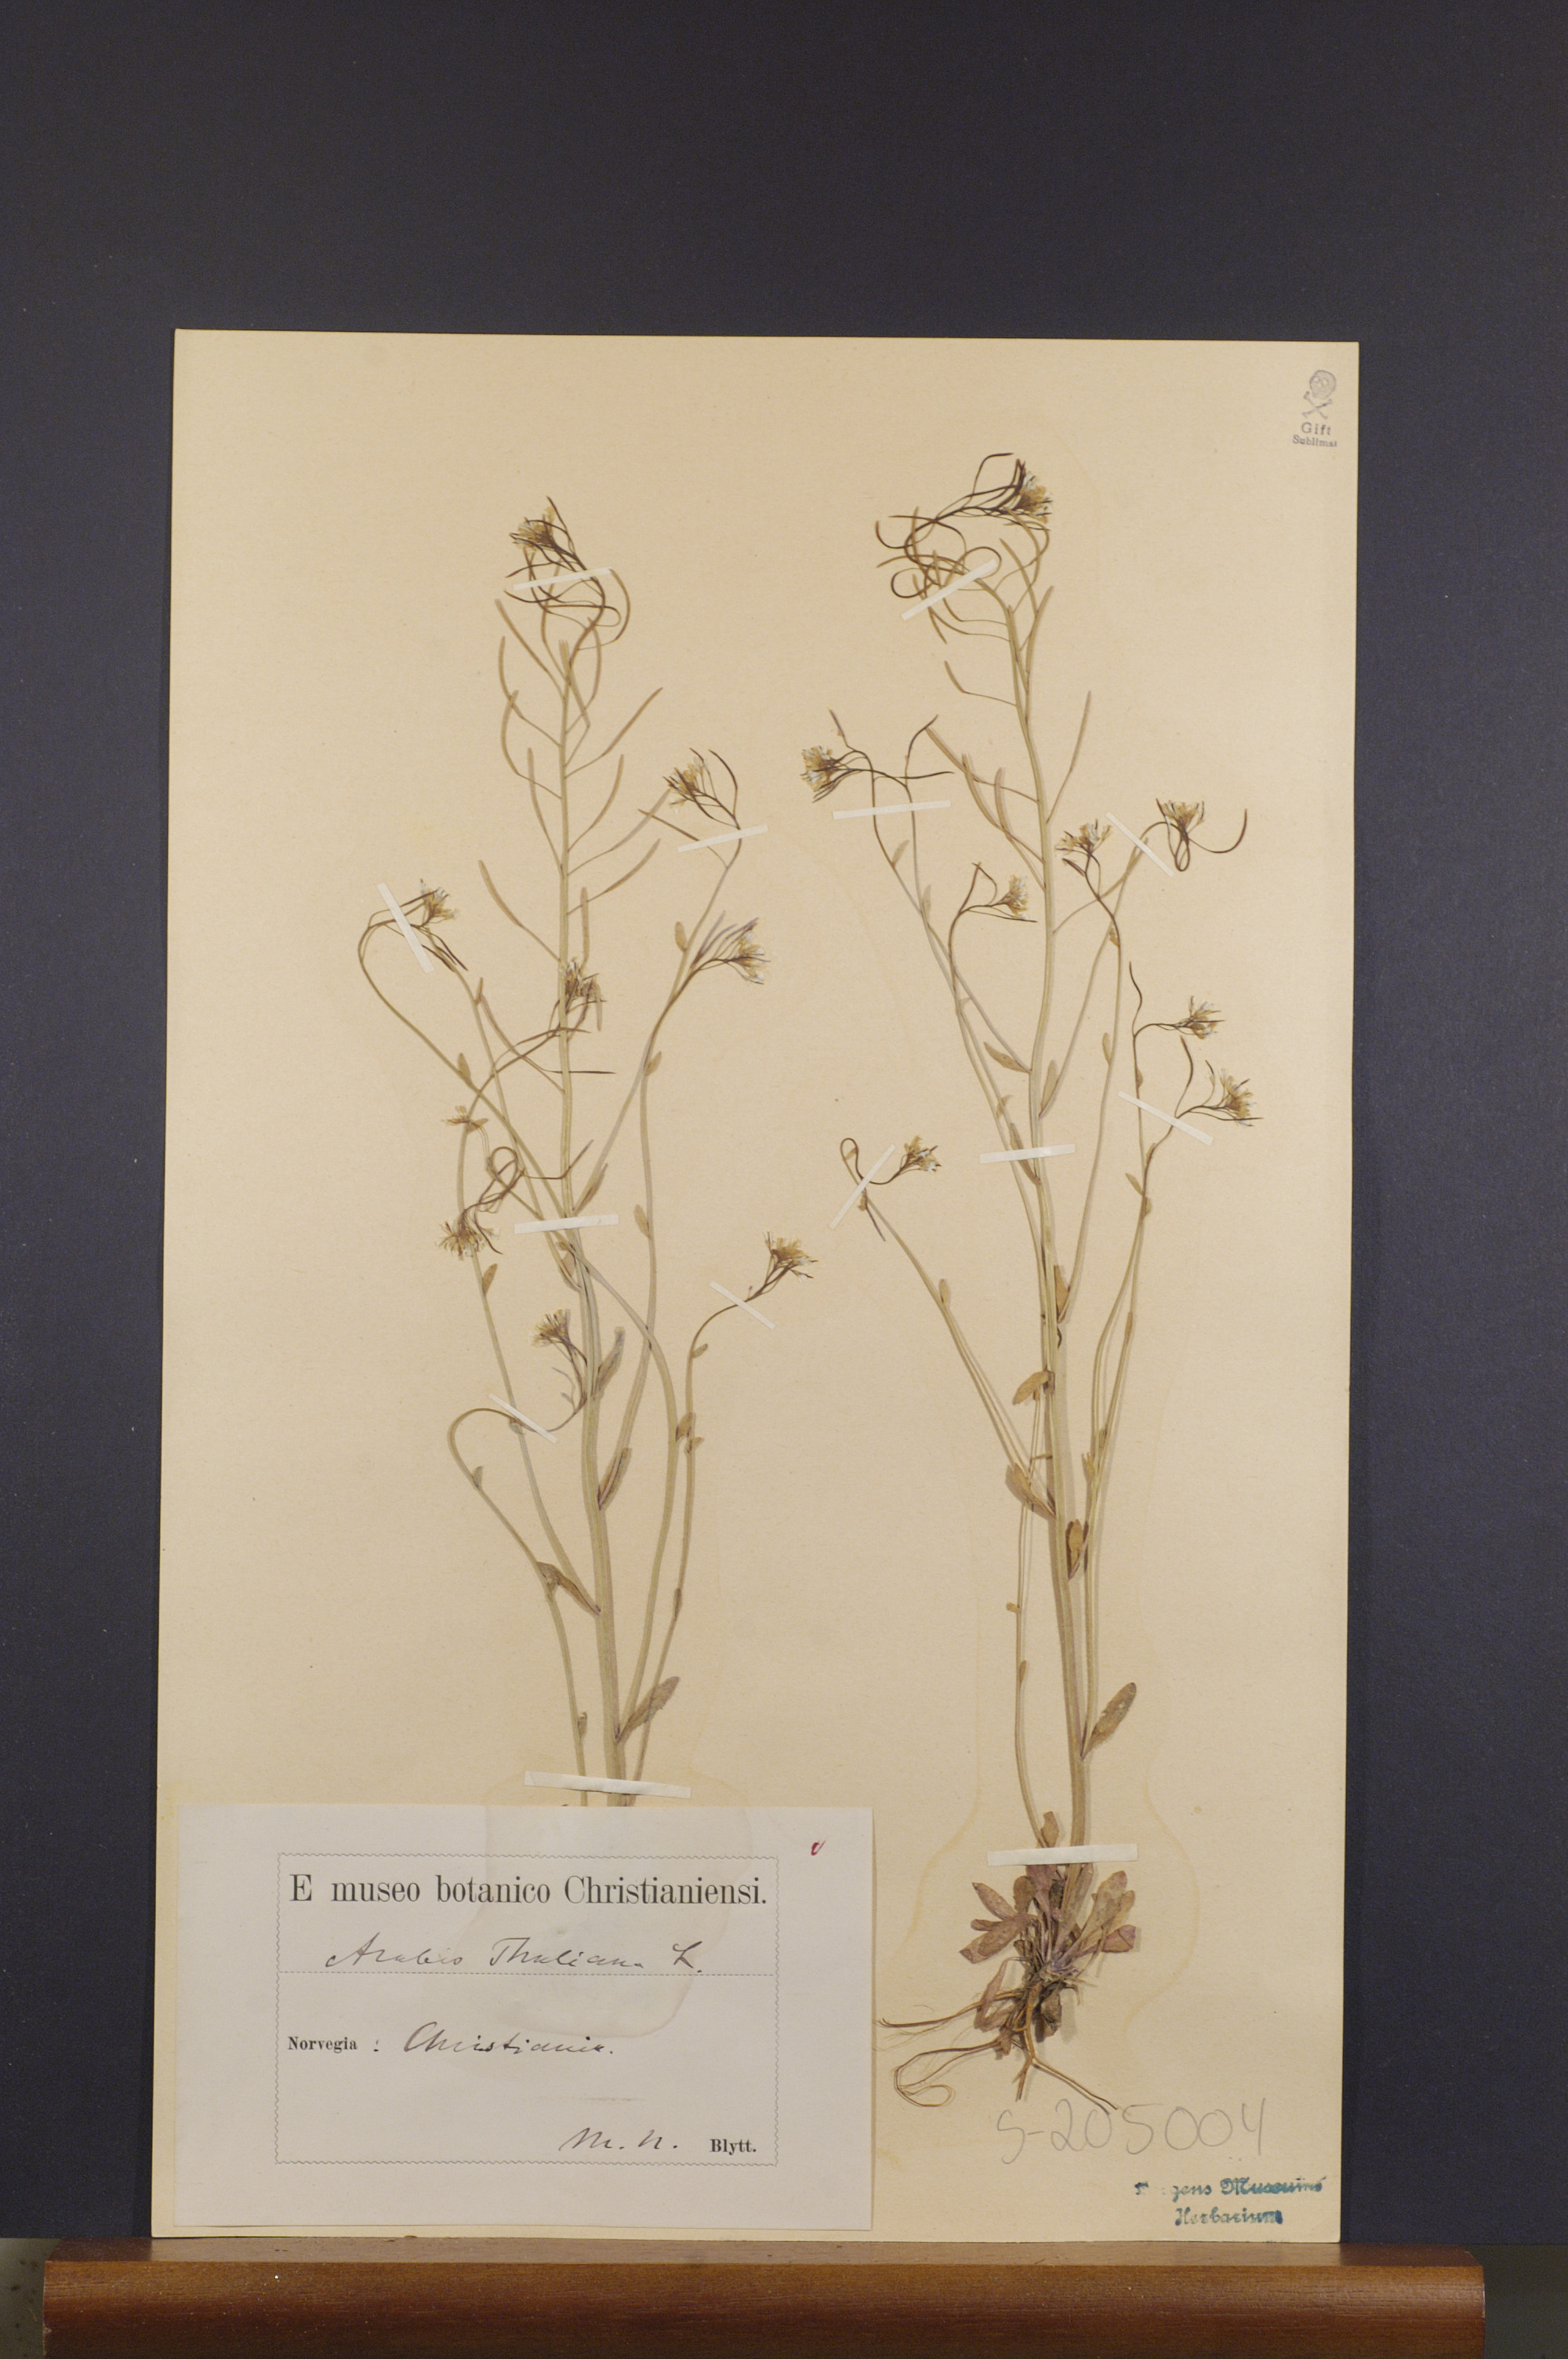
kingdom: Plantae
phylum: Tracheophyta
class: Magnoliopsida
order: Brassicales
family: Brassicaceae
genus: Arabidopsis
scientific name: Arabidopsis thaliana
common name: Thale cress
